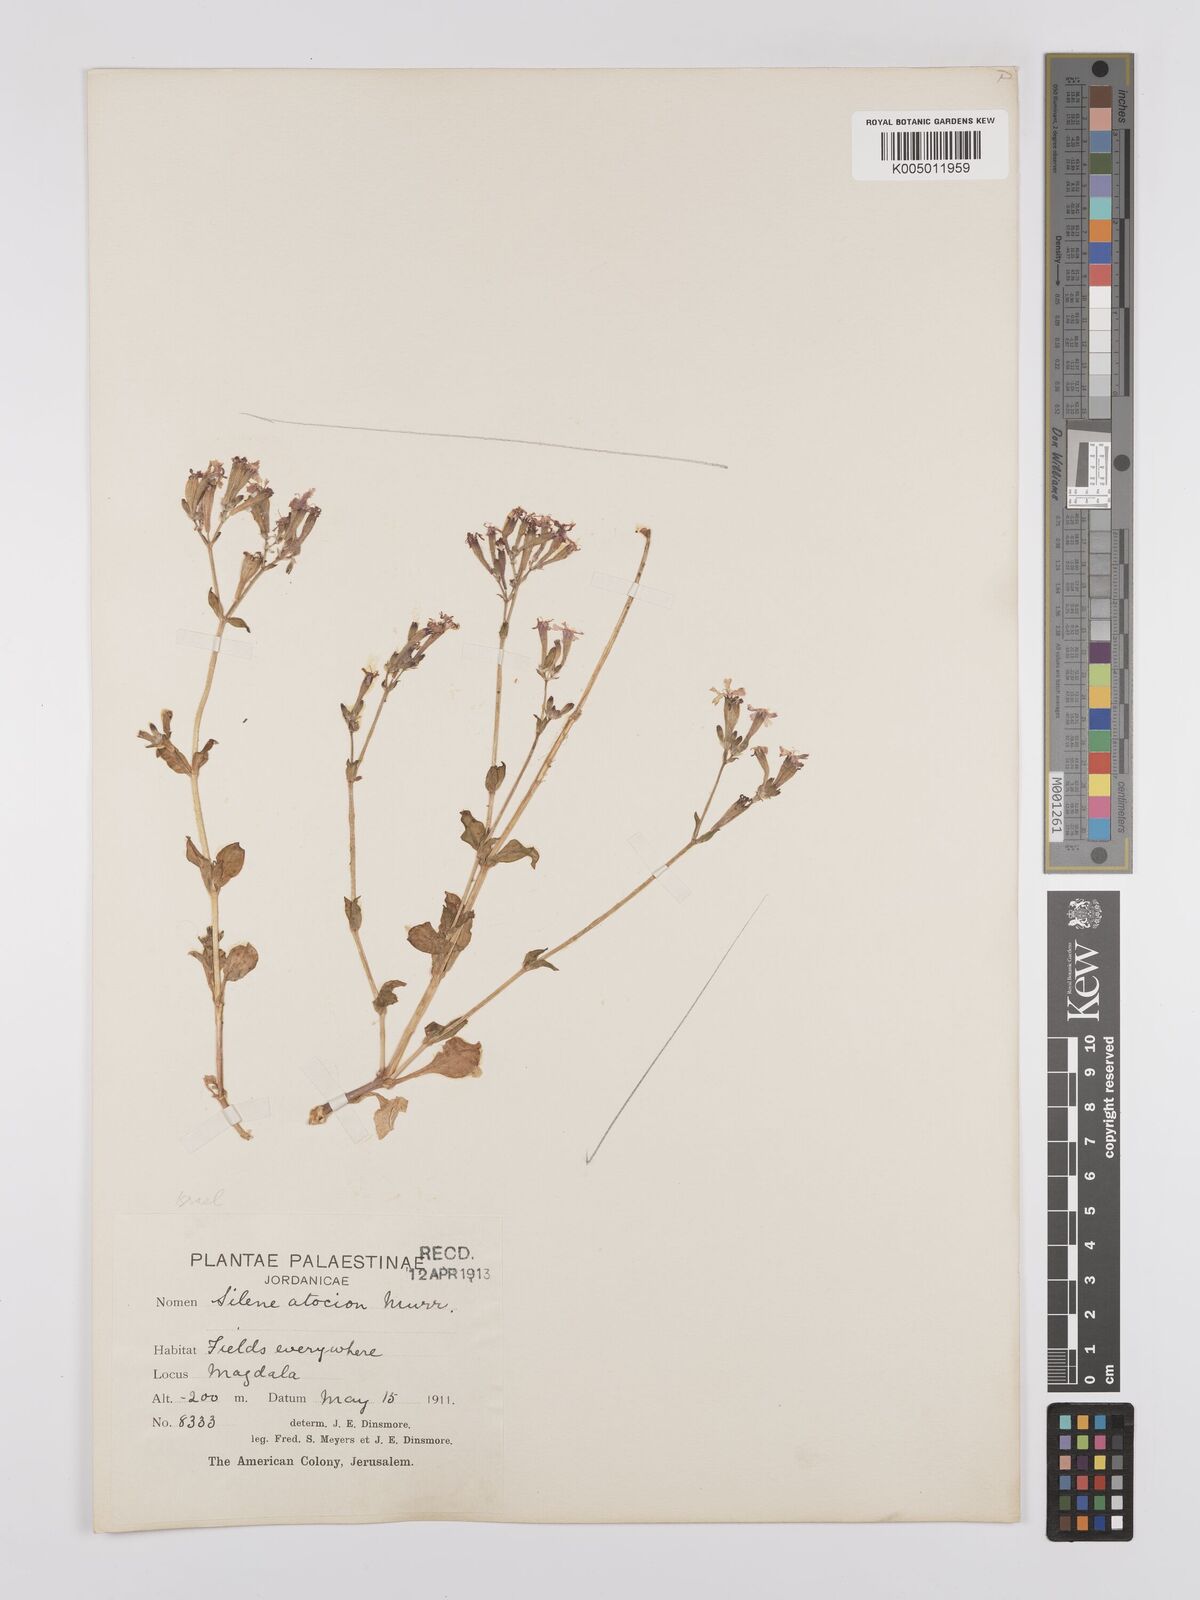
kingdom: Plantae
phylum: Tracheophyta
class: Magnoliopsida
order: Caryophyllales
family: Caryophyllaceae
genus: Silene
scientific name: Silene aegyptiaca
